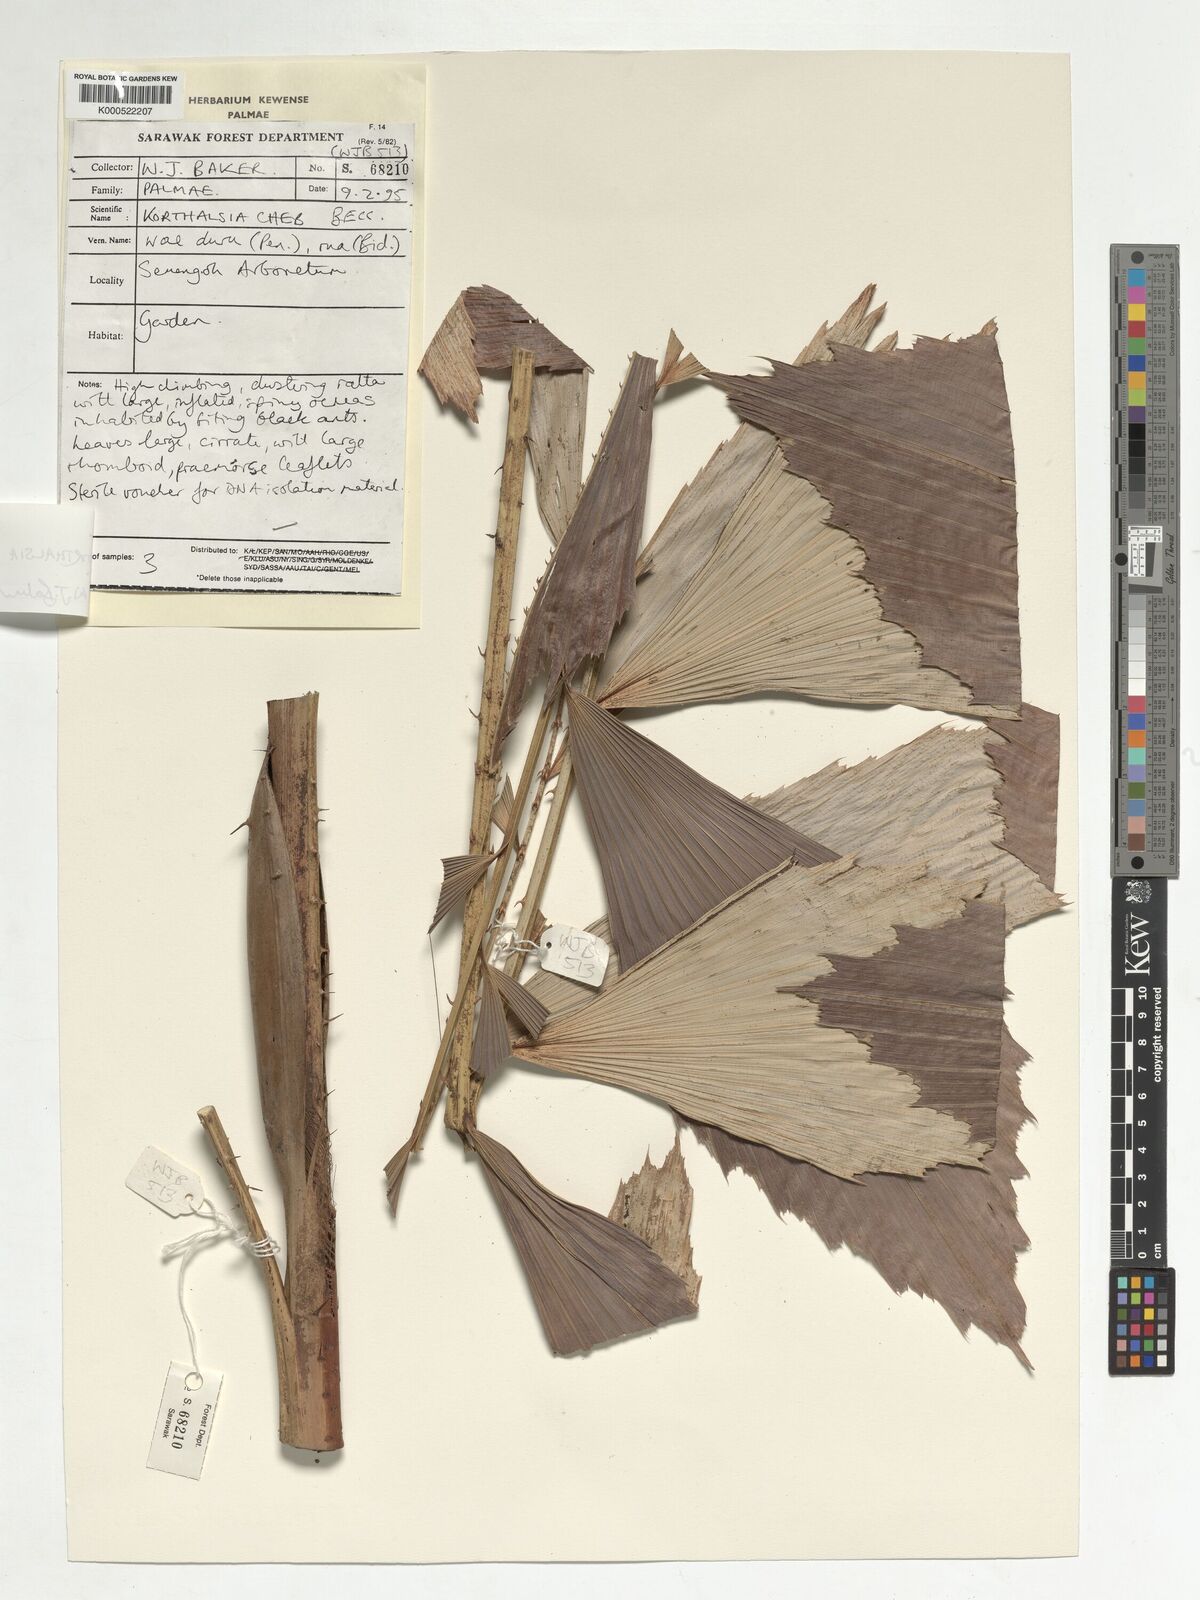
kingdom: Plantae
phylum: Tracheophyta
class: Liliopsida
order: Arecales
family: Arecaceae
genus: Korthalsia
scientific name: Korthalsia cheb
